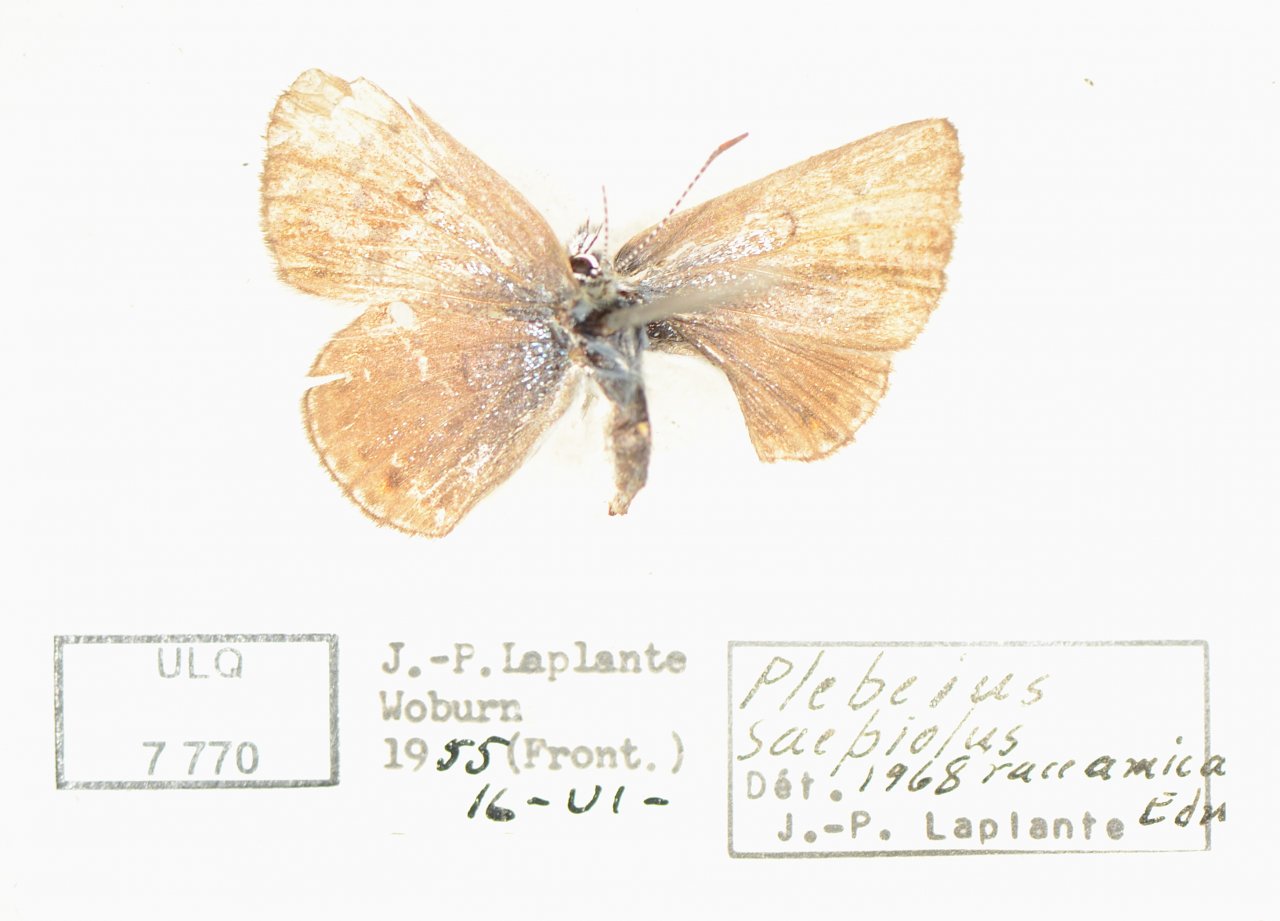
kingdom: Animalia
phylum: Arthropoda
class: Insecta
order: Lepidoptera
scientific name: Lepidoptera
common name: Butterflies
